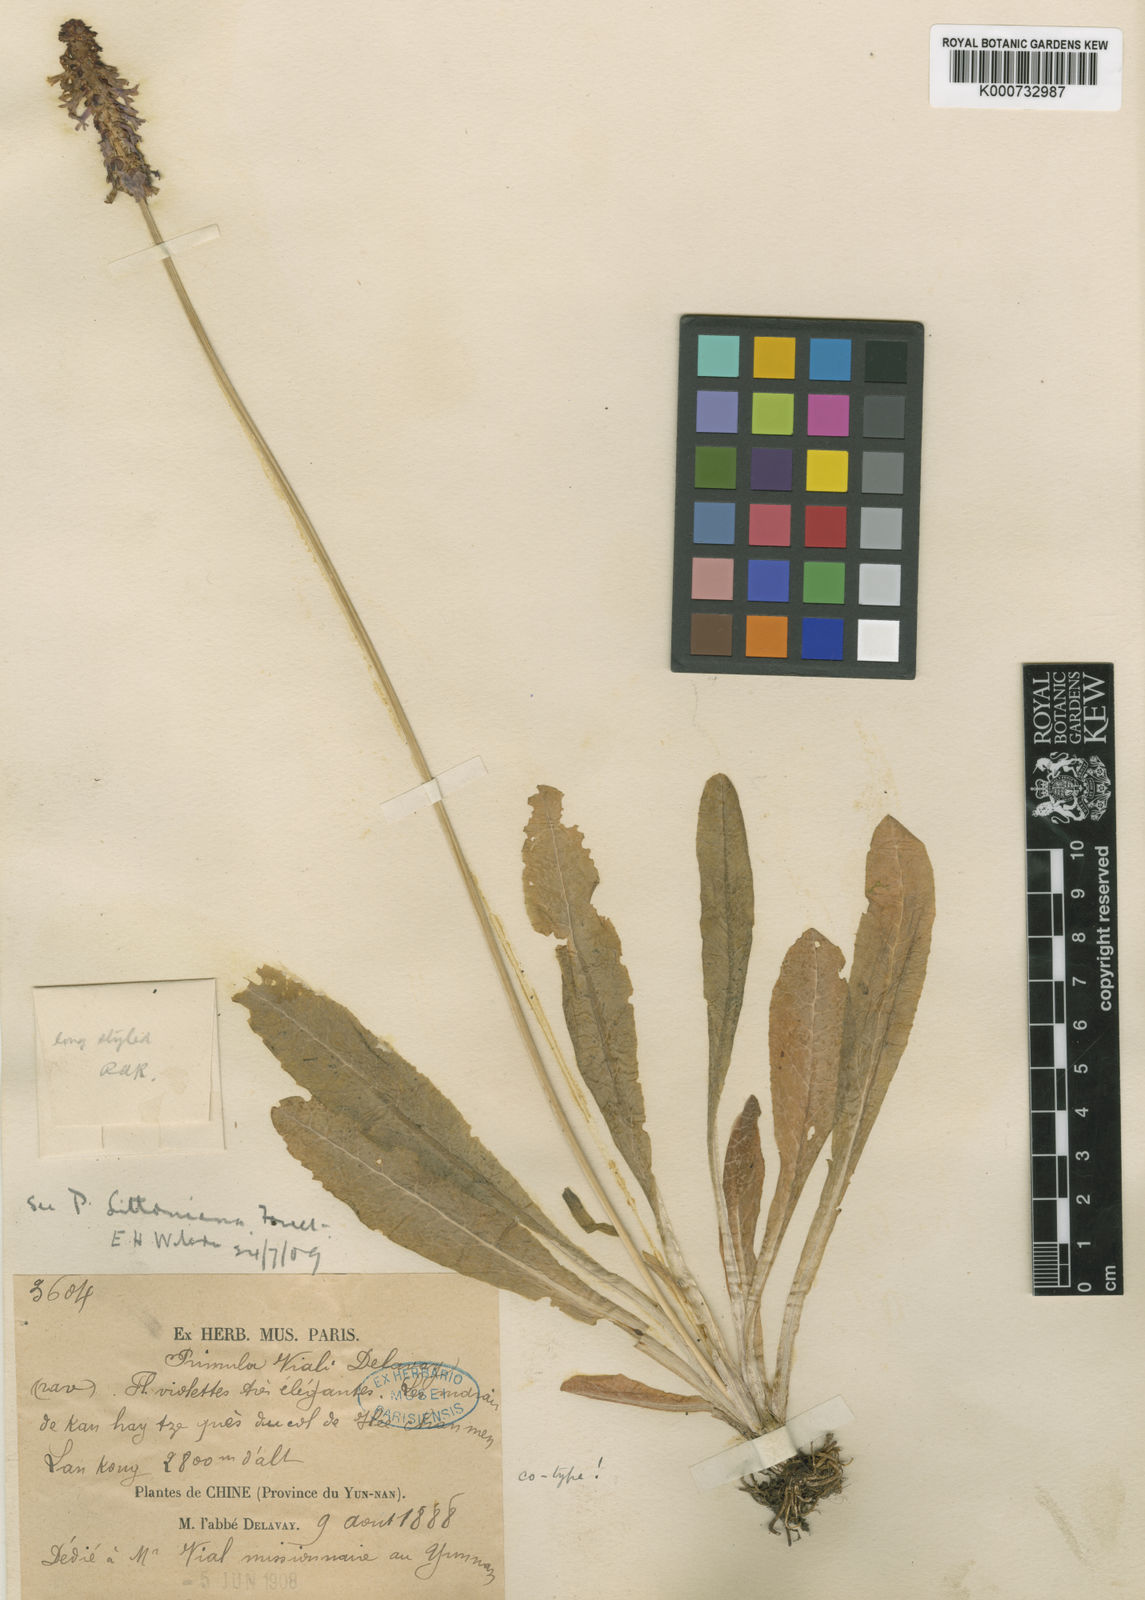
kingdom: Plantae
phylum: Tracheophyta
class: Magnoliopsida
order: Ericales
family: Primulaceae
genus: Primula
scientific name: Primula vialii
